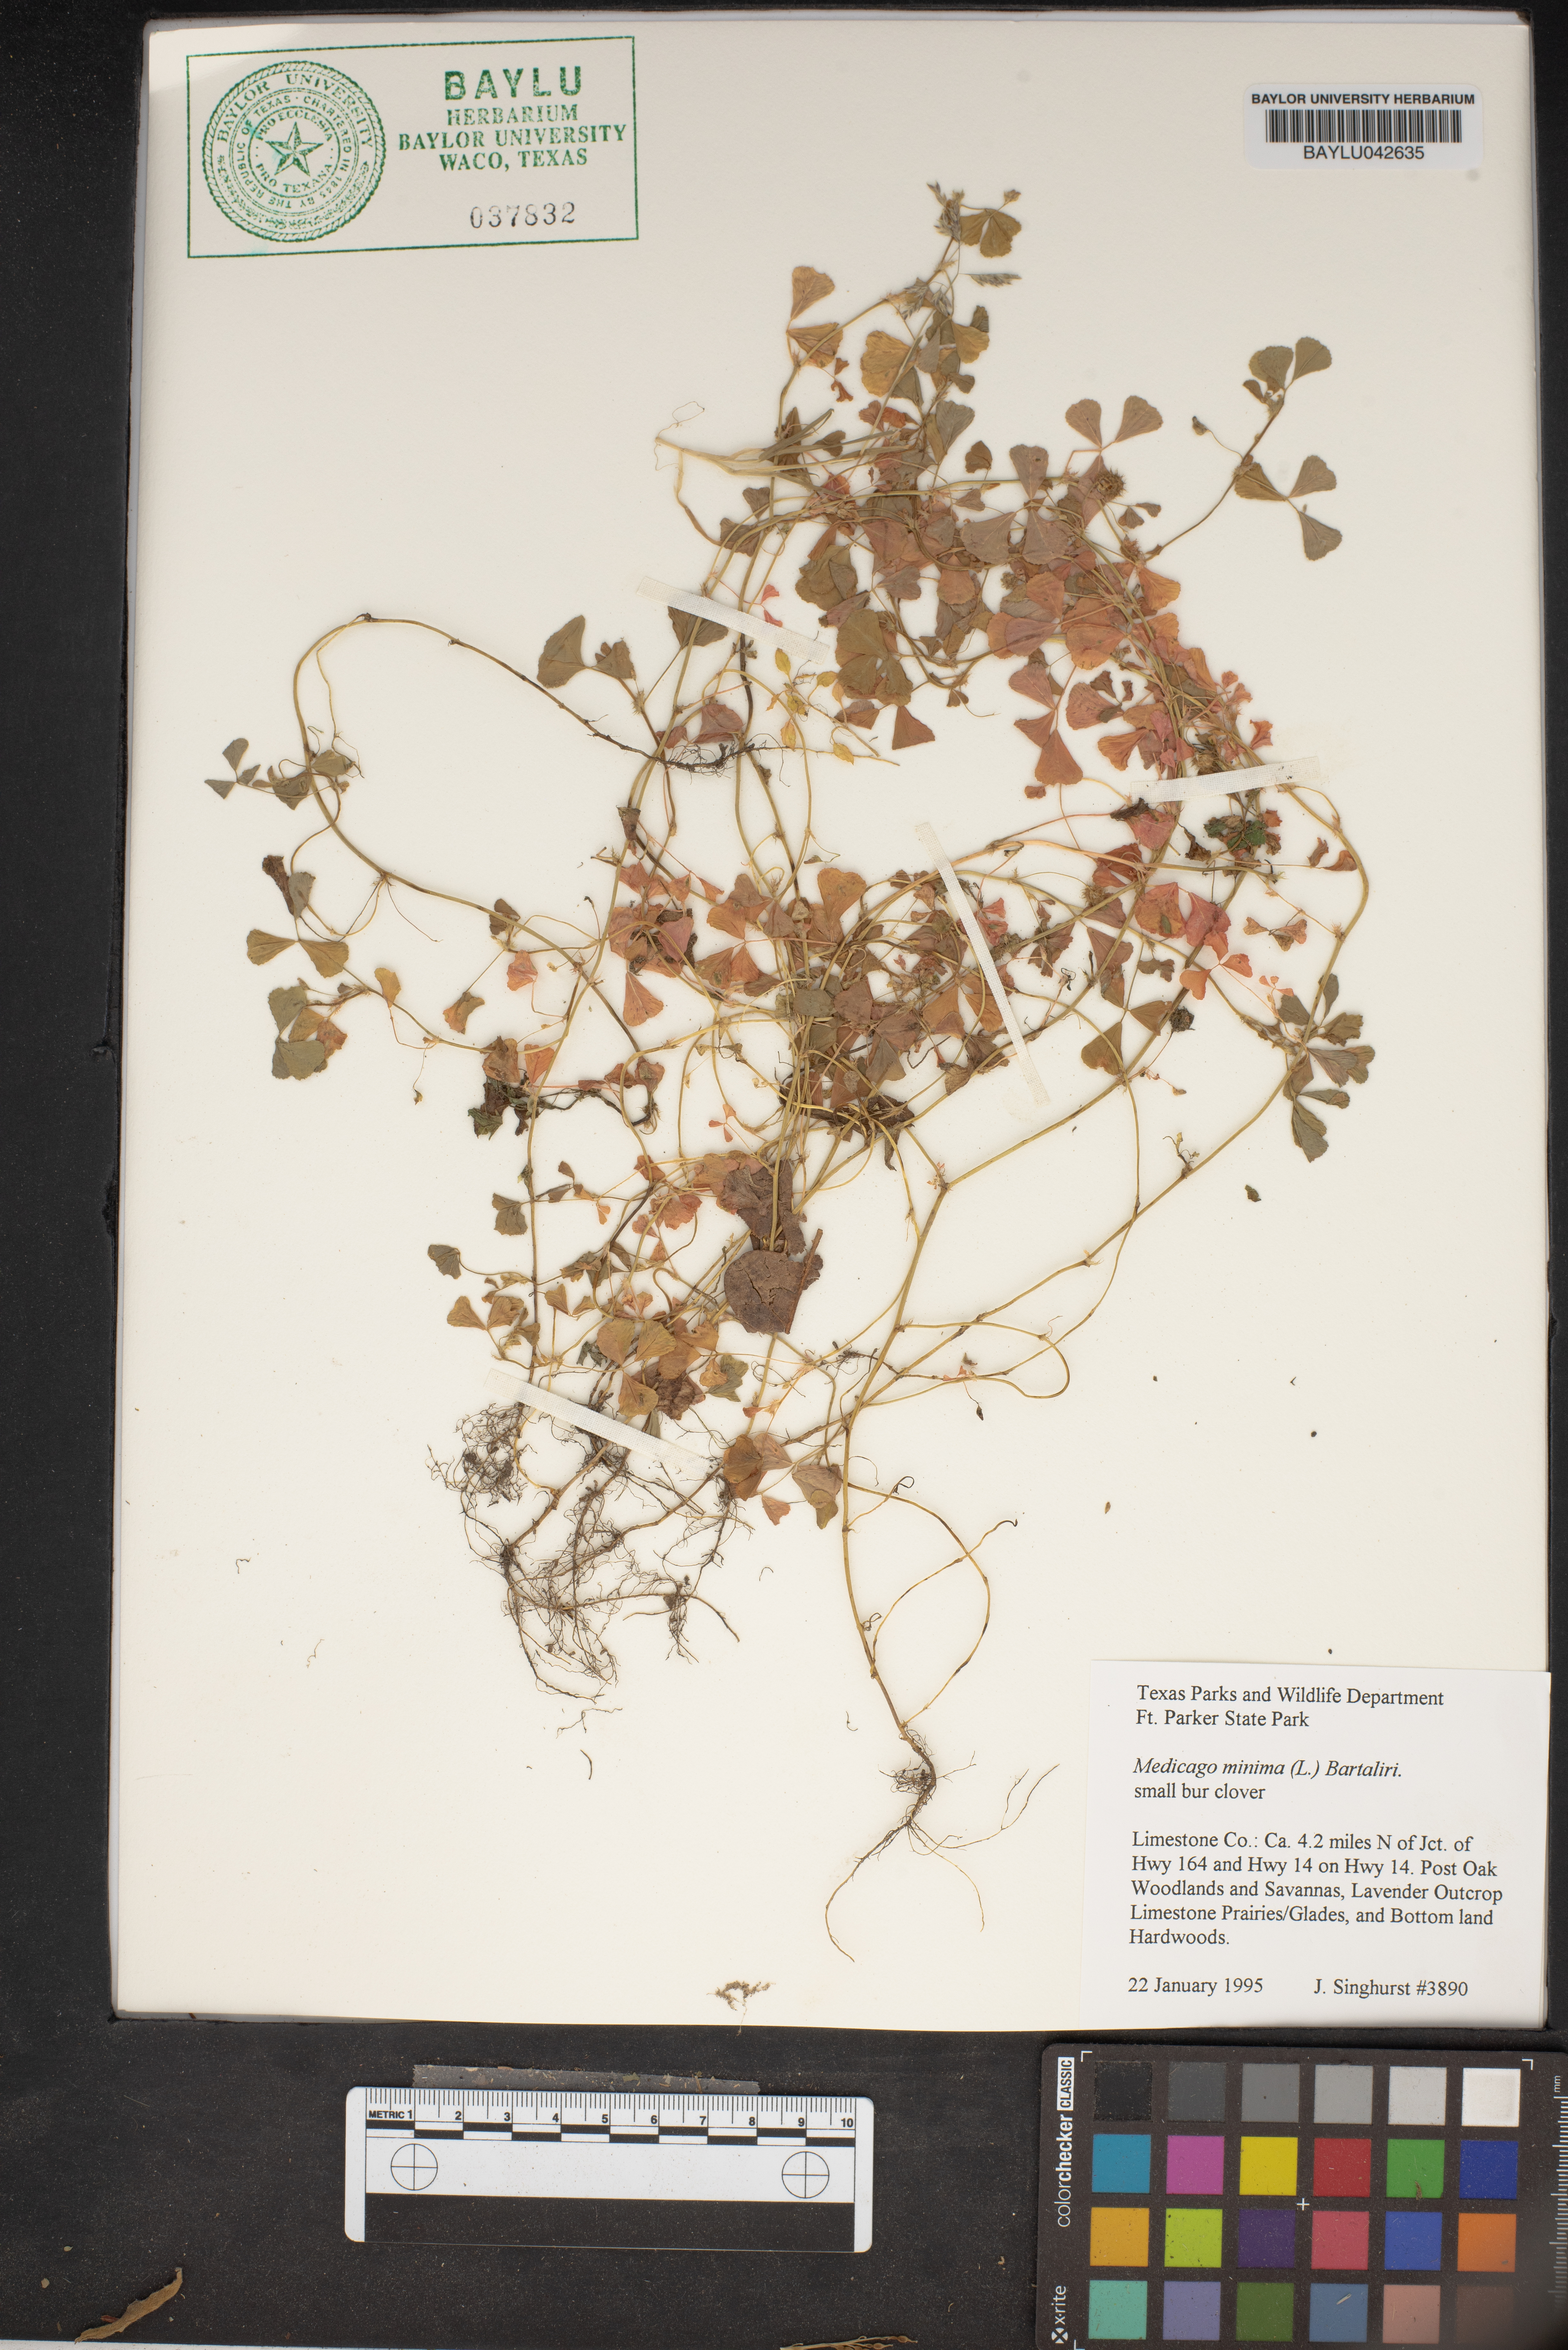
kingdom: Plantae
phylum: Tracheophyta
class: Magnoliopsida
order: Fabales
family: Fabaceae
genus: Medicago
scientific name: Medicago minima
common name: Little bur-clover
